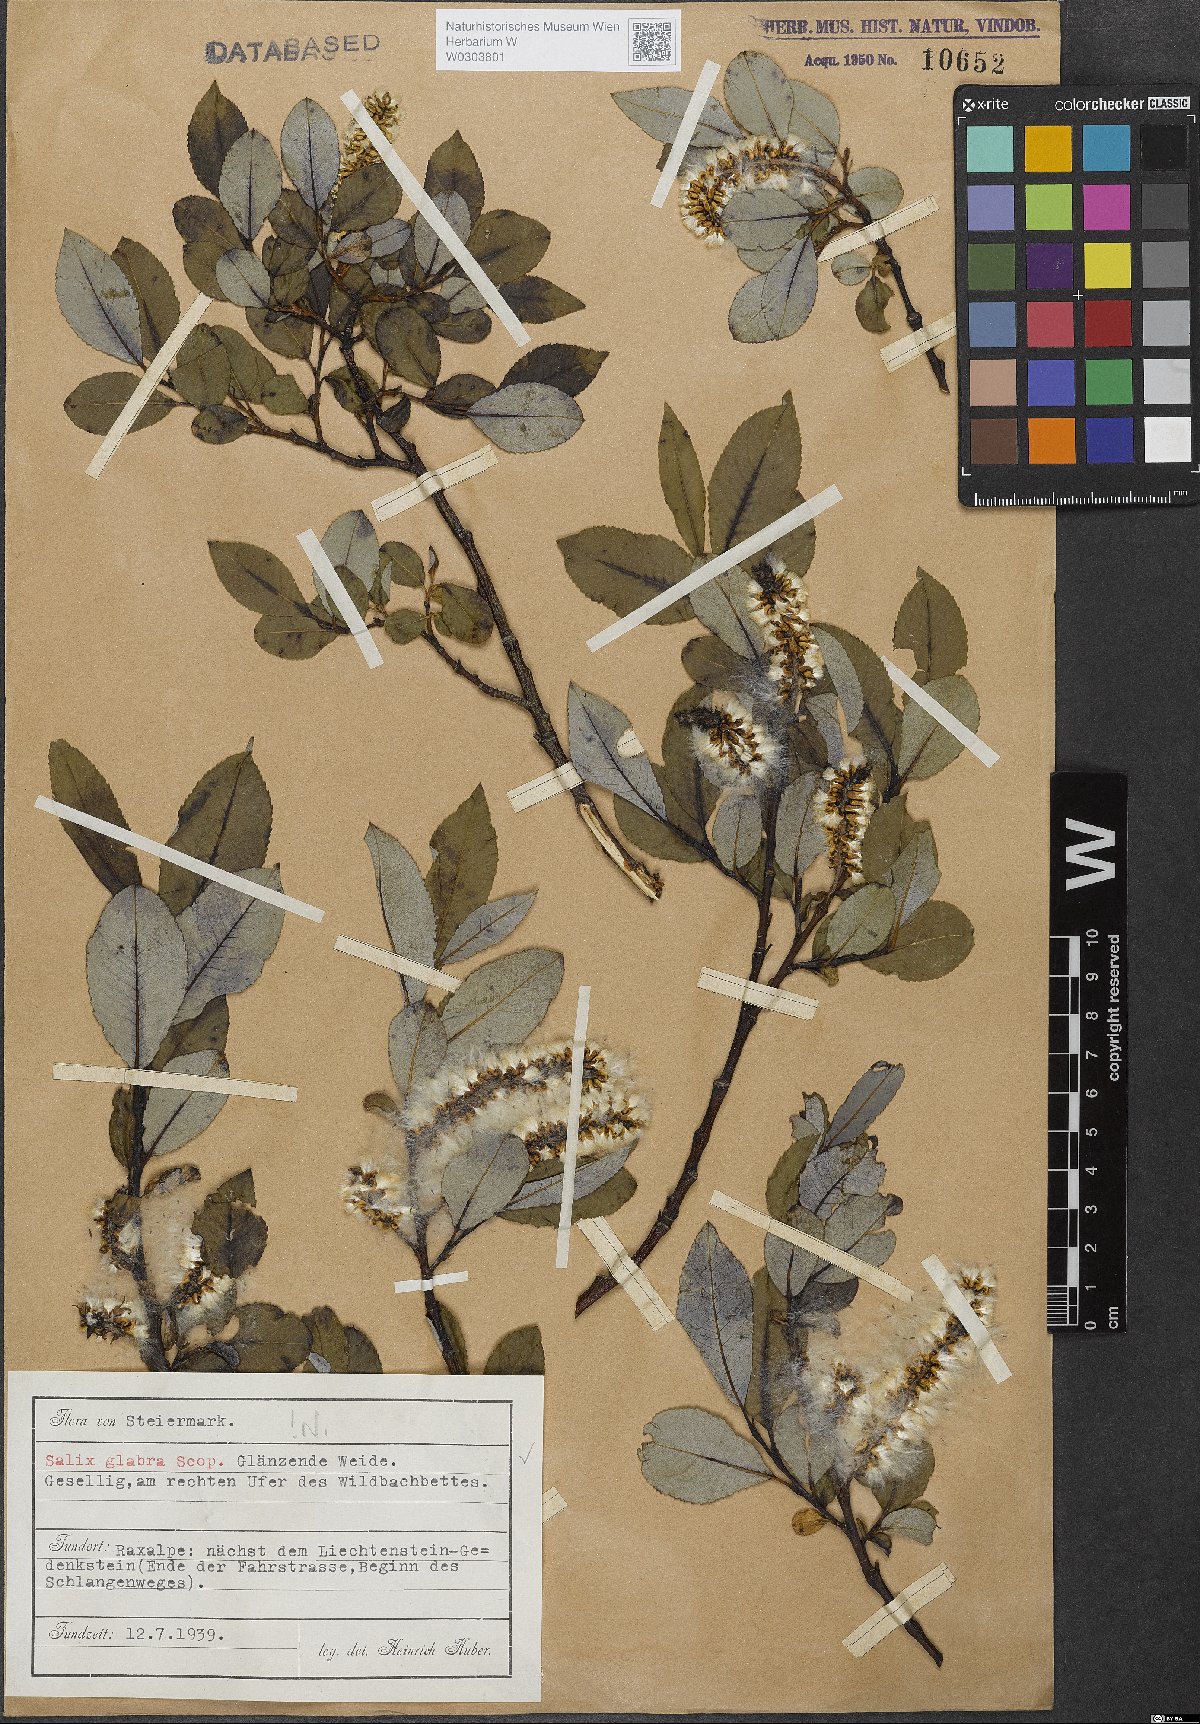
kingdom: Plantae
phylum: Tracheophyta
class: Magnoliopsida
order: Malpighiales
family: Salicaceae
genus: Salix
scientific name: Salix glabra
